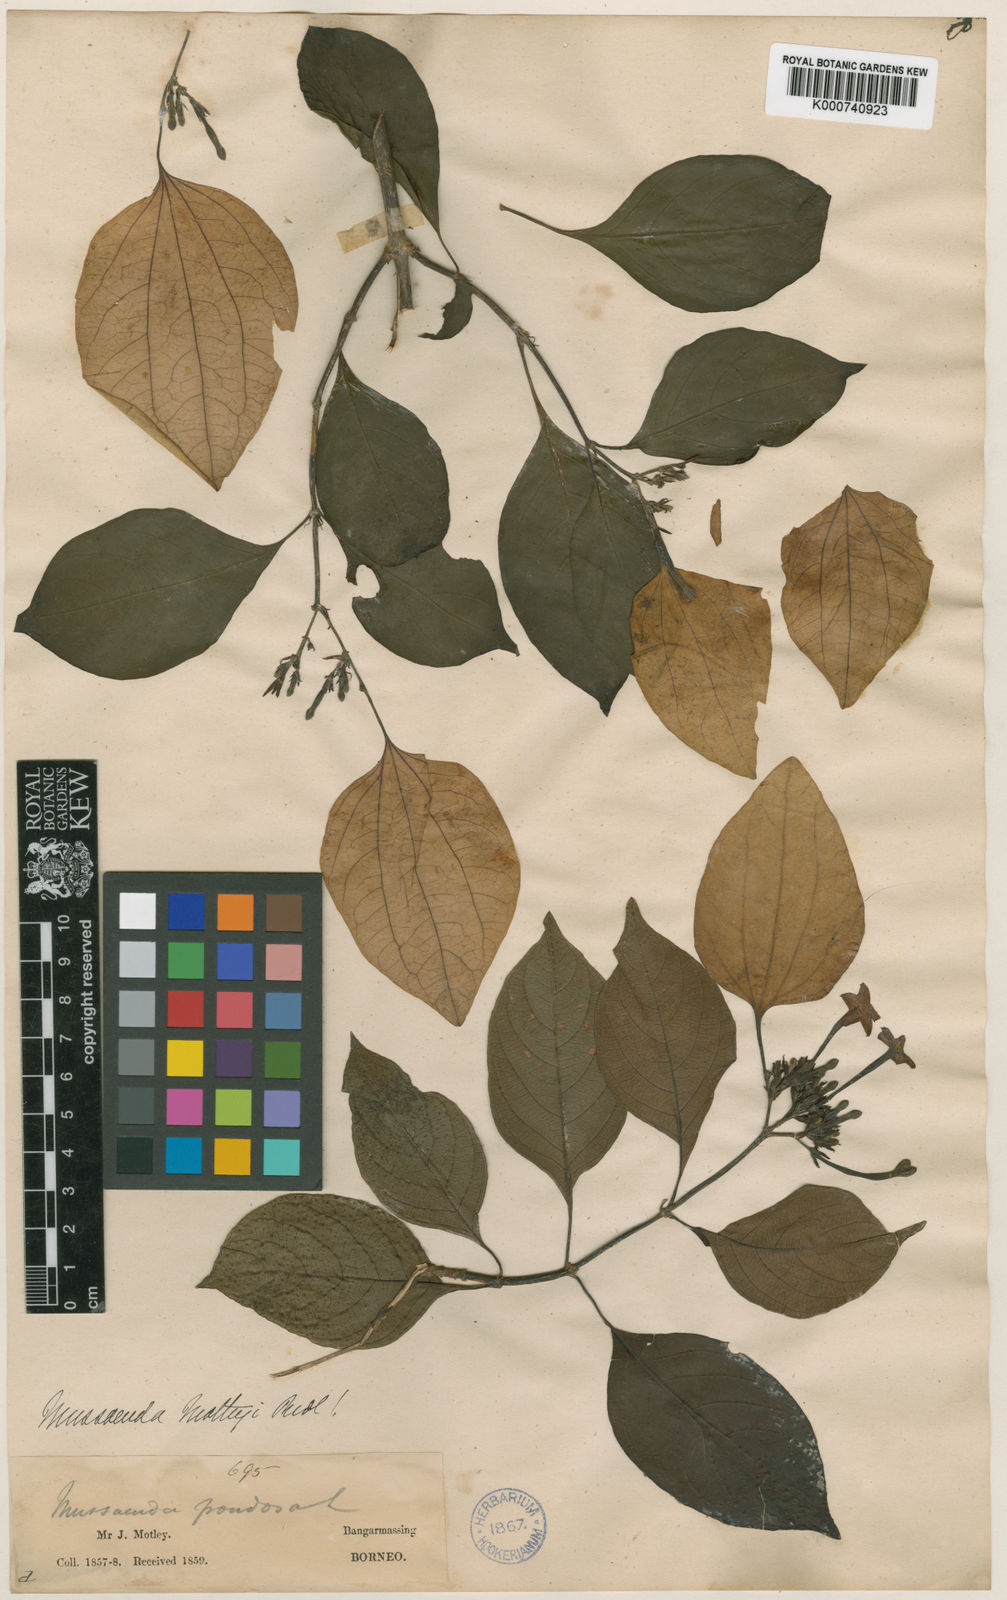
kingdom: Plantae
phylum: Tracheophyta
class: Magnoliopsida
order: Gentianales
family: Rubiaceae
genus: Mussaenda
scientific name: Mussaenda motleyi
